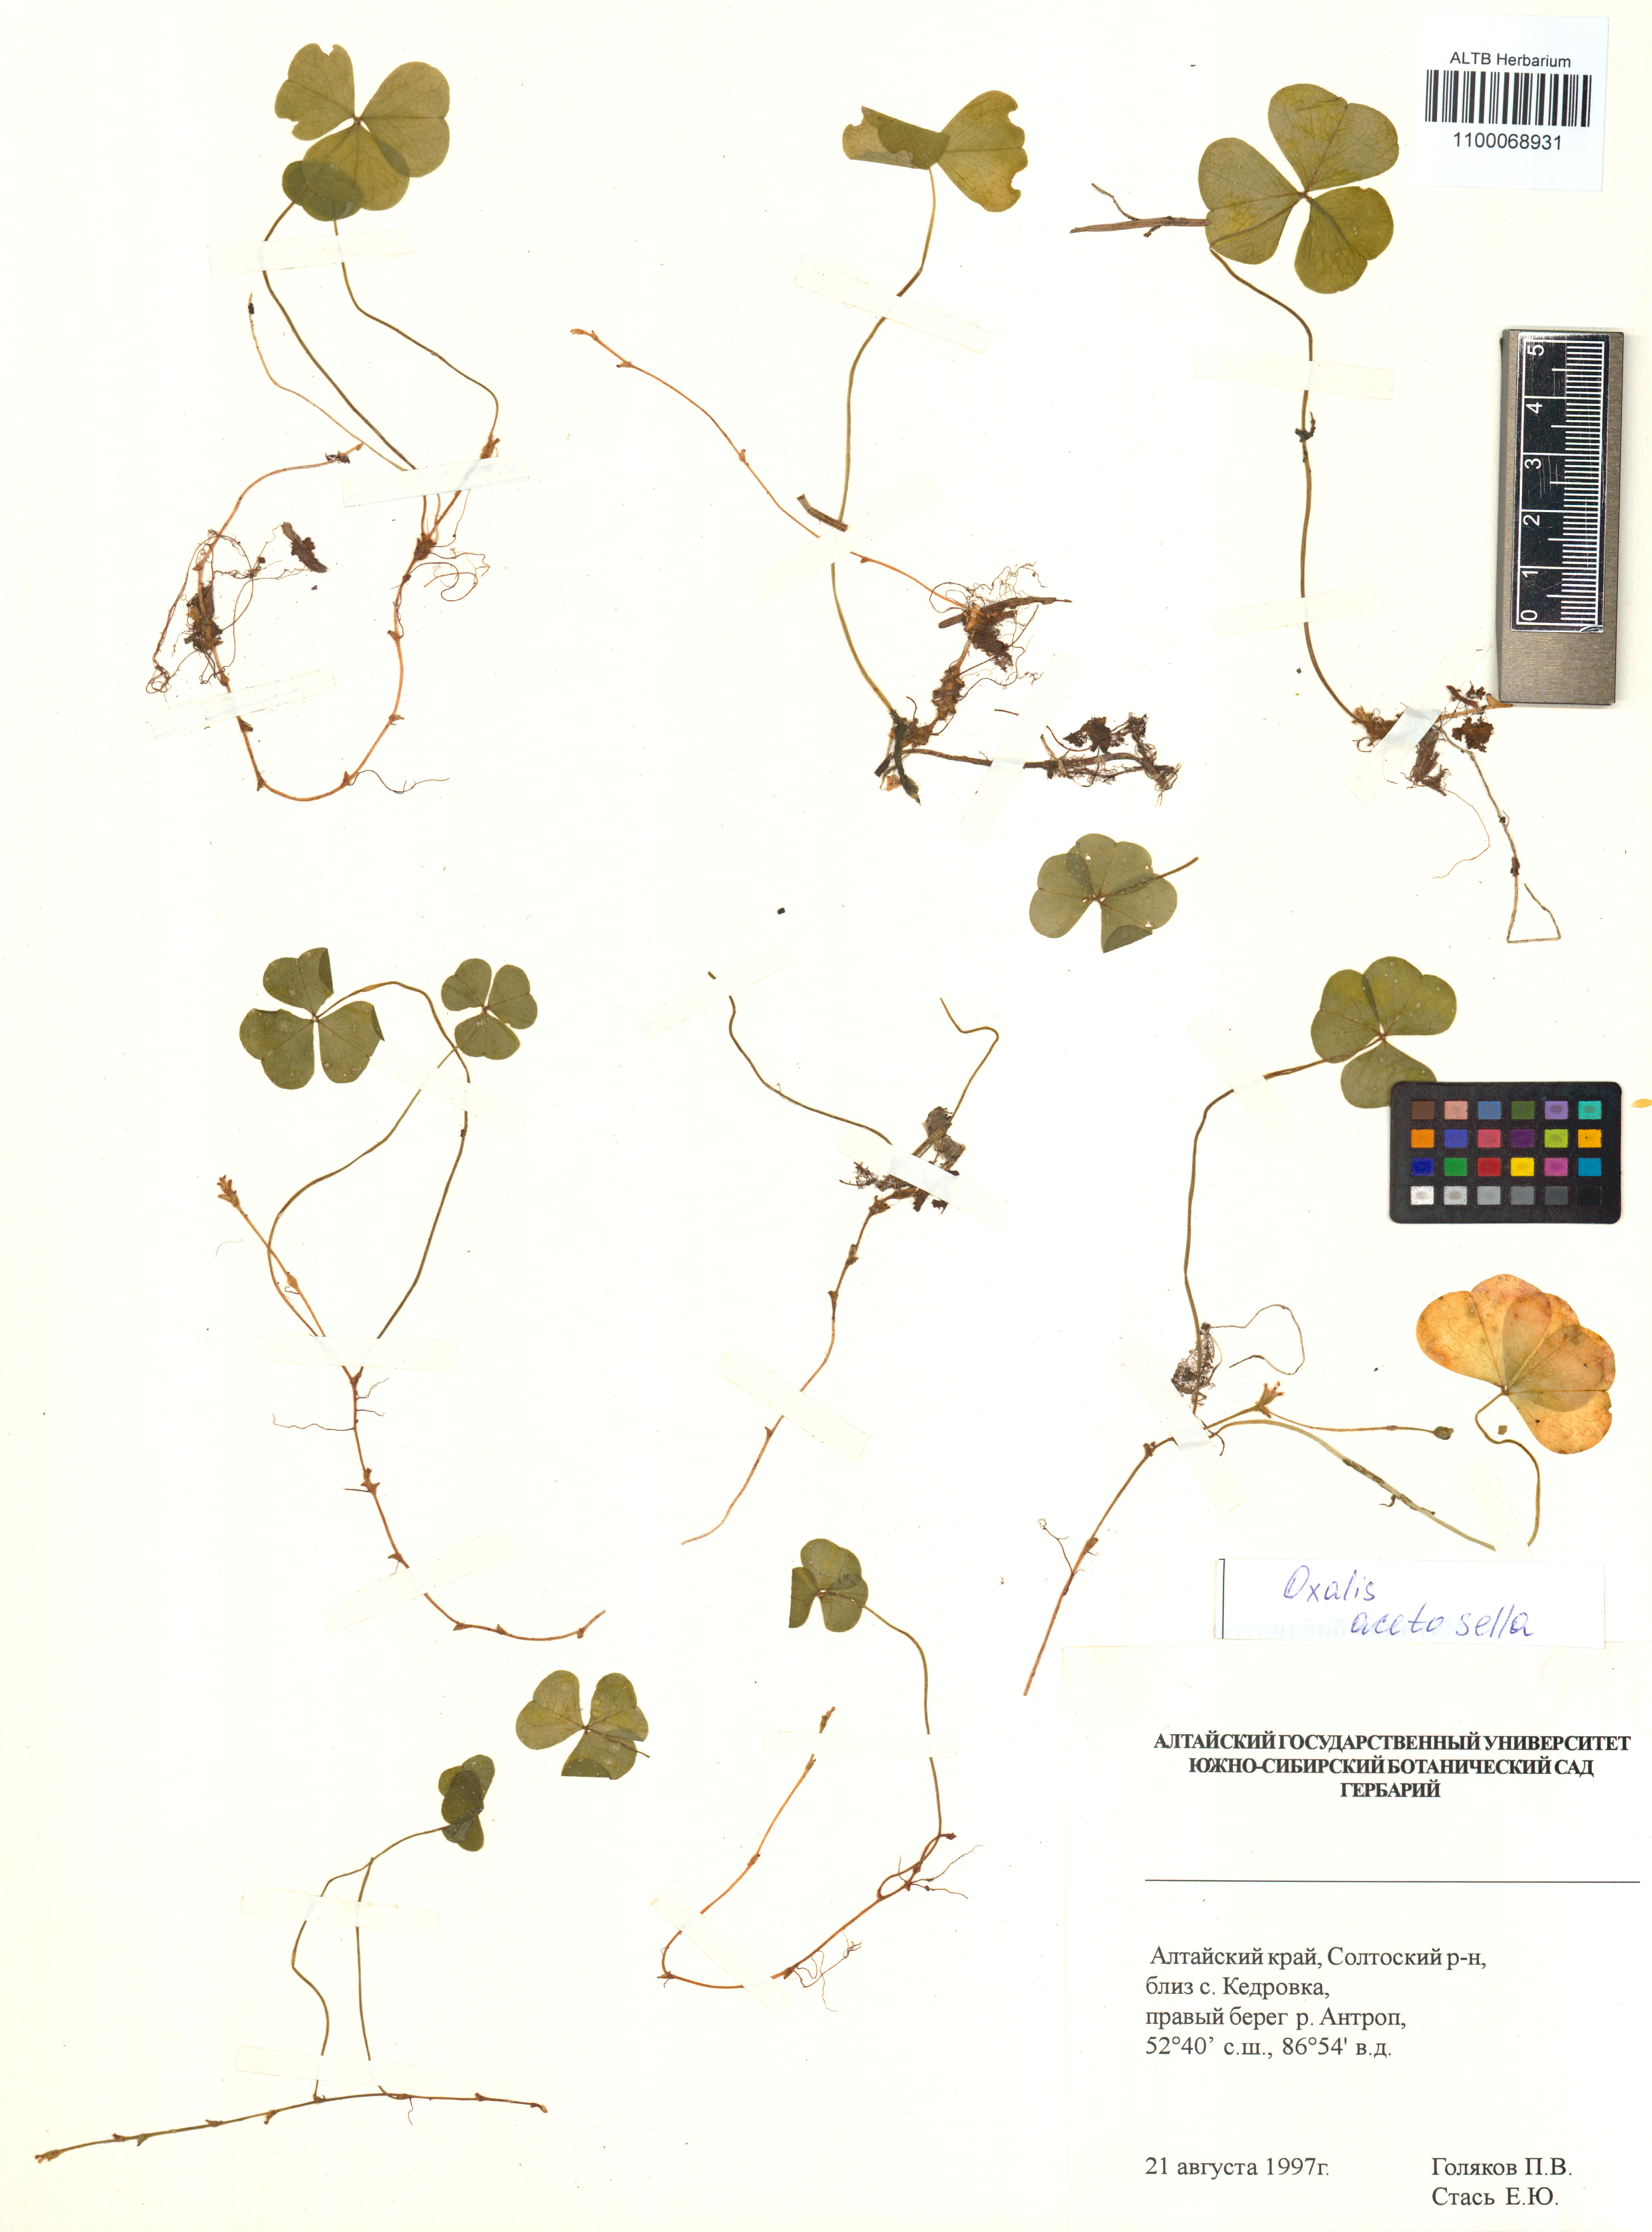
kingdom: Plantae
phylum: Tracheophyta
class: Magnoliopsida
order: Oxalidales
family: Oxalidaceae
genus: Oxalis
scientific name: Oxalis acetosella
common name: Wood-sorrel
